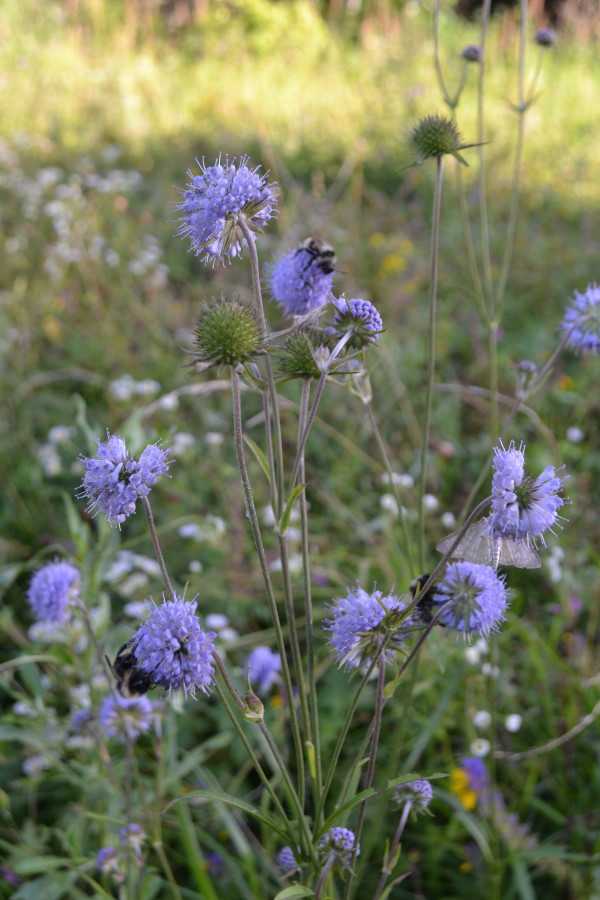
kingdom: Plantae
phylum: Tracheophyta
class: Magnoliopsida
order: Dipsacales
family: Caprifoliaceae
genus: Succisa
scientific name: Succisa pratensis
